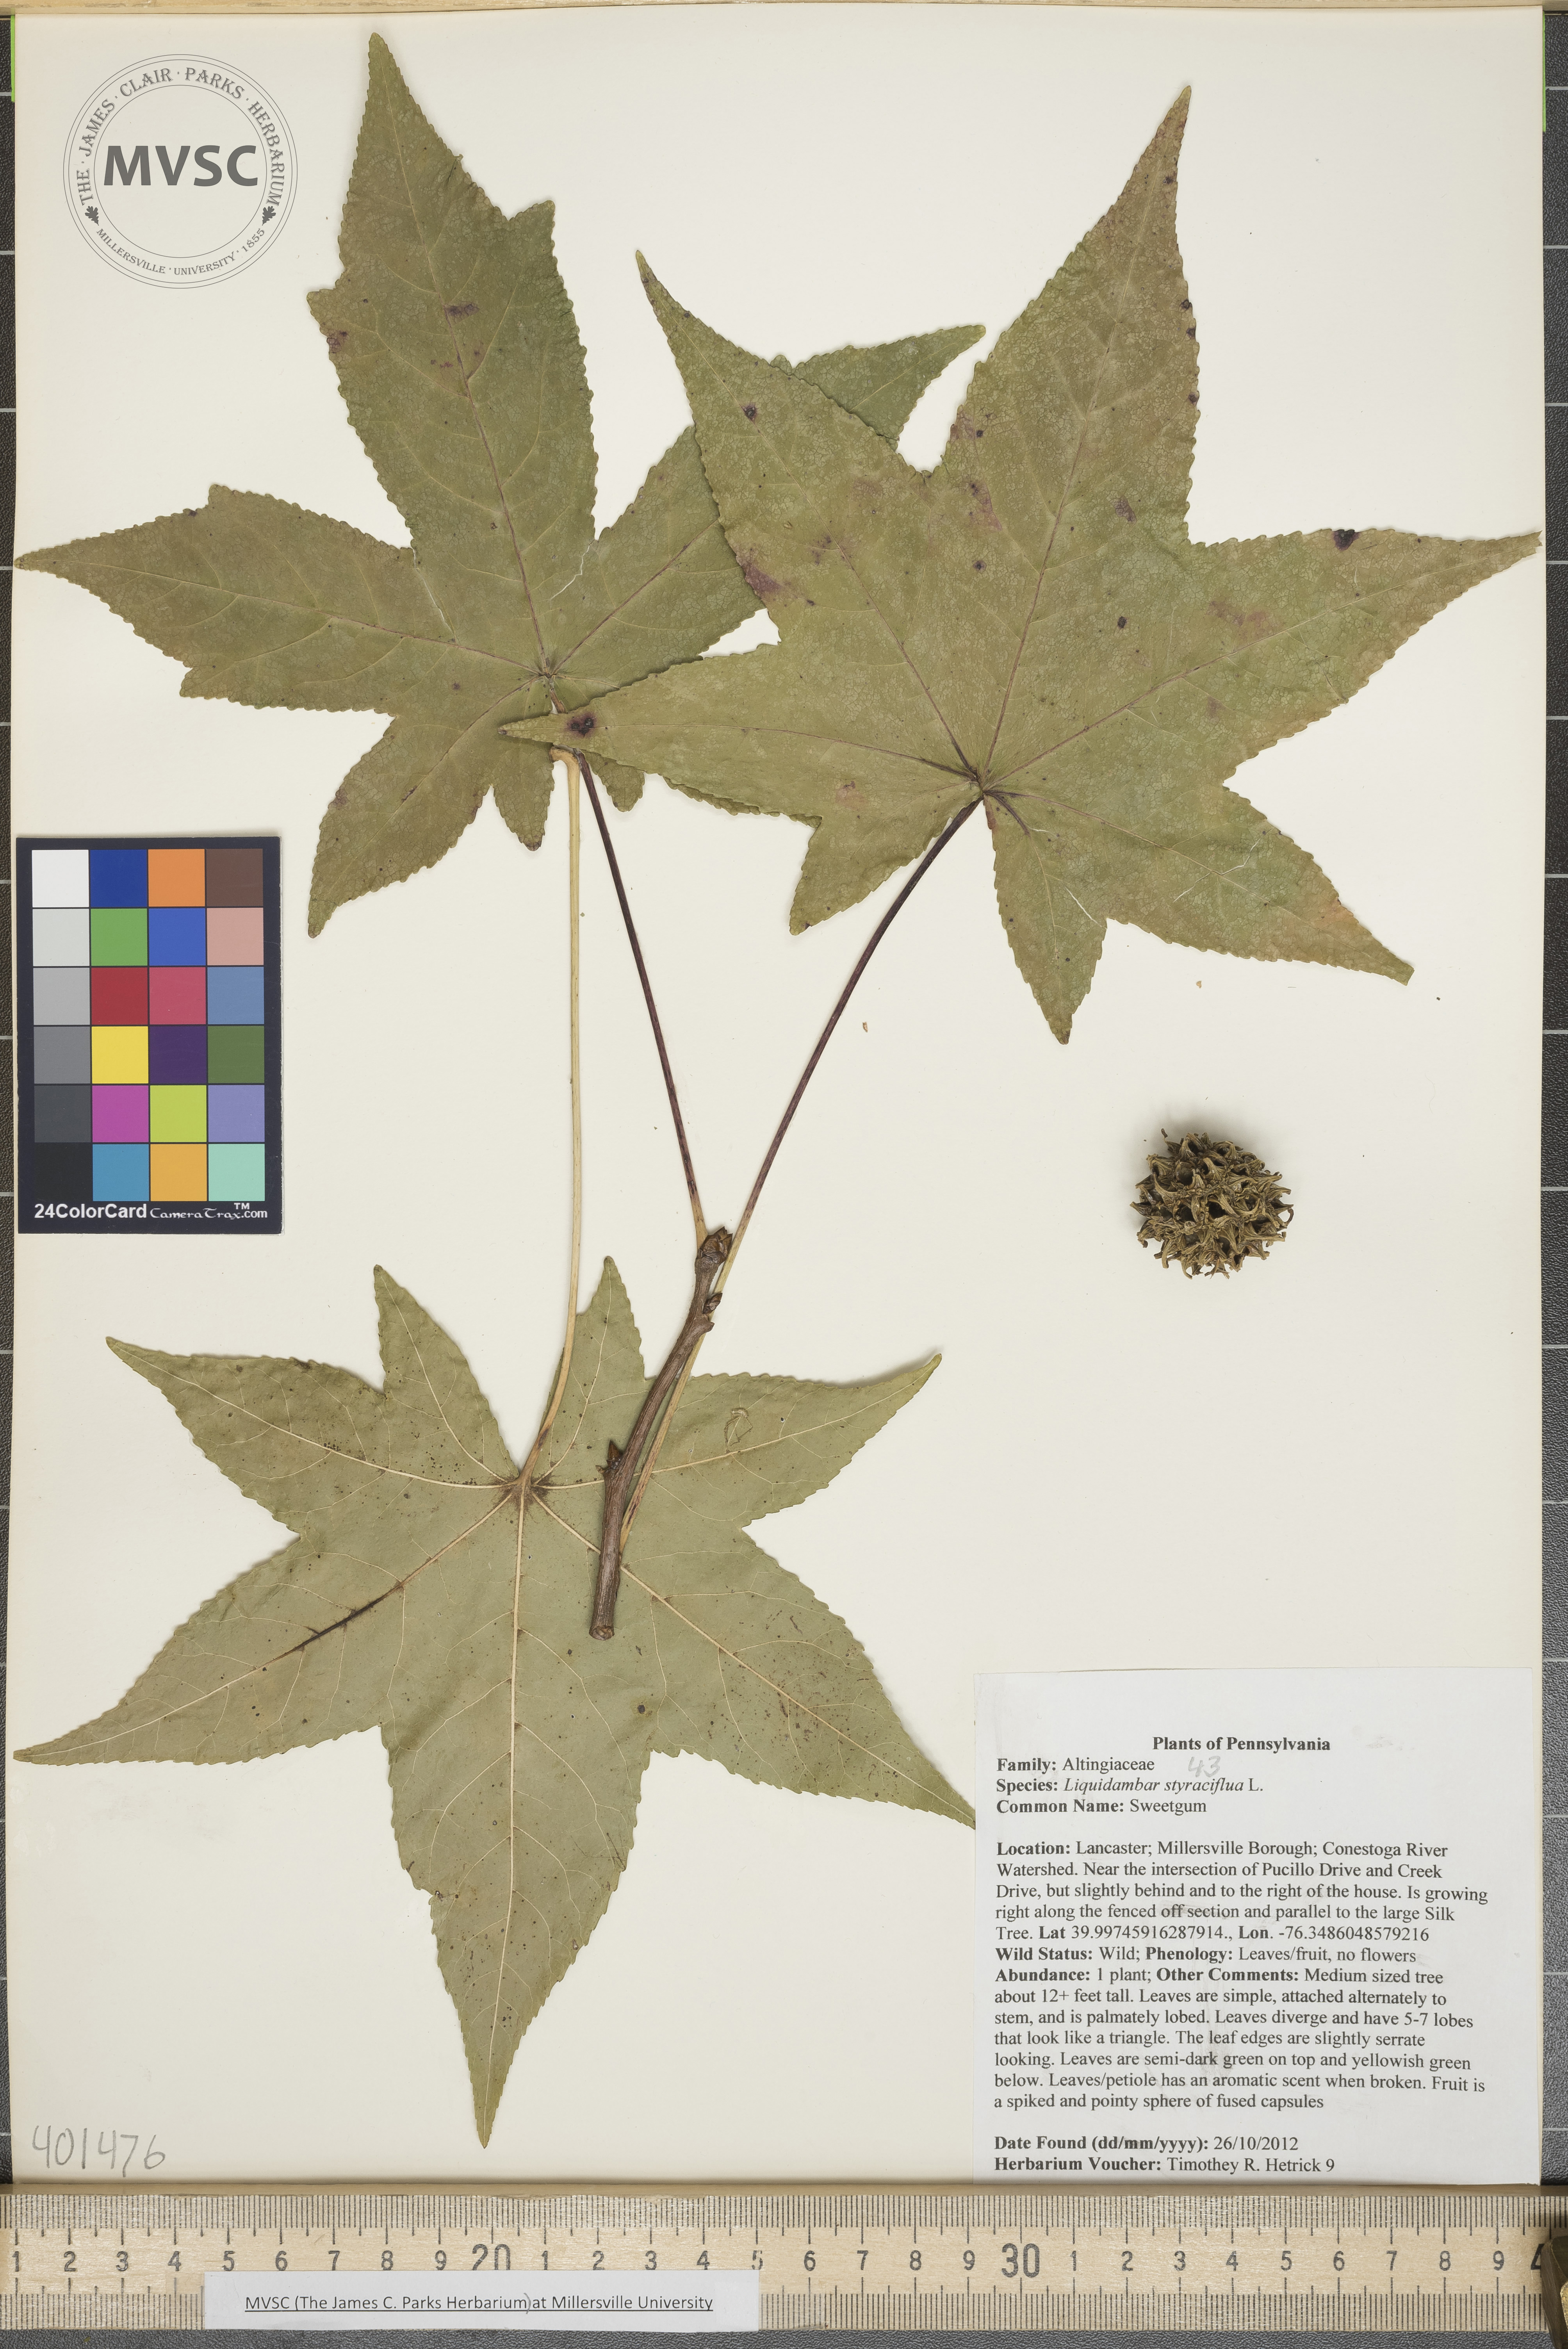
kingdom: Plantae
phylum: Tracheophyta
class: Magnoliopsida
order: Saxifragales
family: Altingiaceae
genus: Liquidambar
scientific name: Liquidambar styraciflua
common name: Sweetgum
